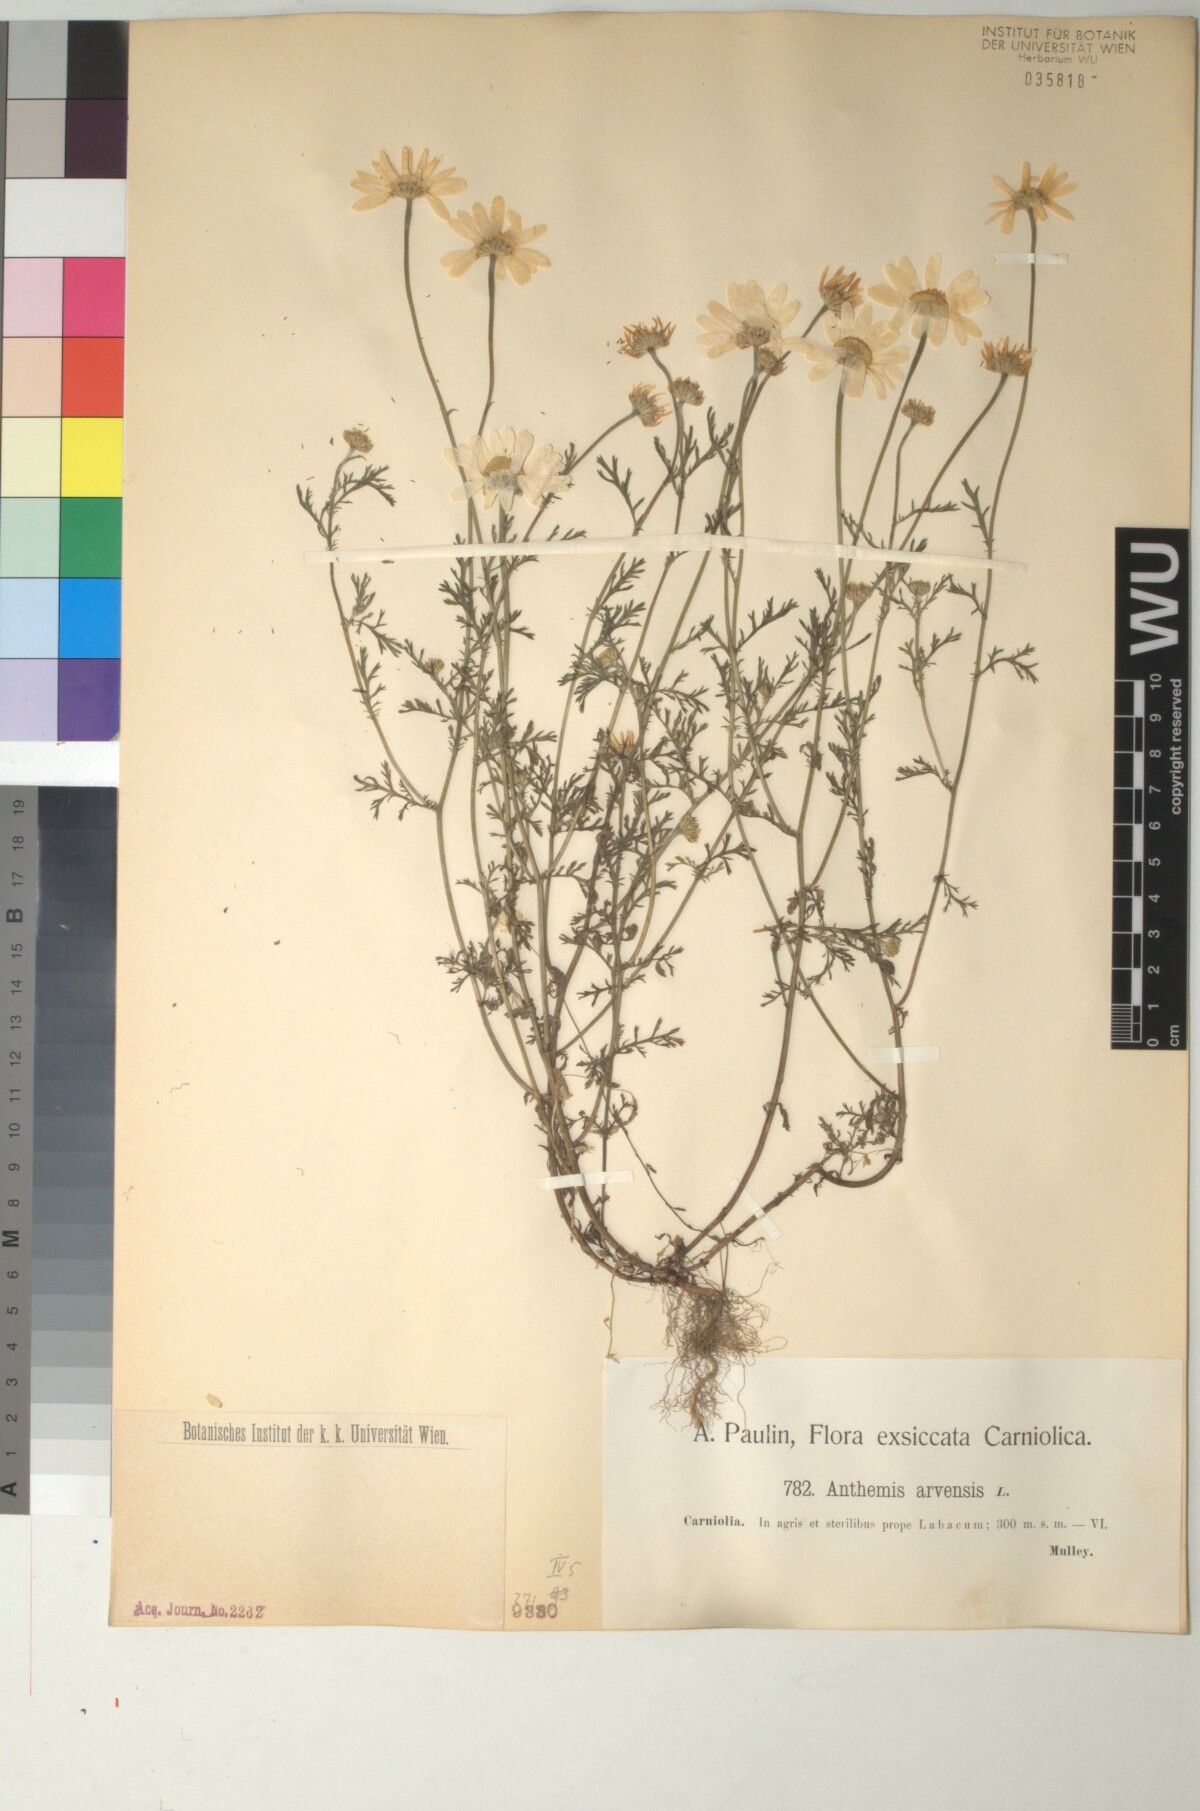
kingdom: Plantae
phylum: Tracheophyta
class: Magnoliopsida
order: Asterales
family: Asteraceae
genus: Anthemis
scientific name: Anthemis arvensis
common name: Corn chamomile
